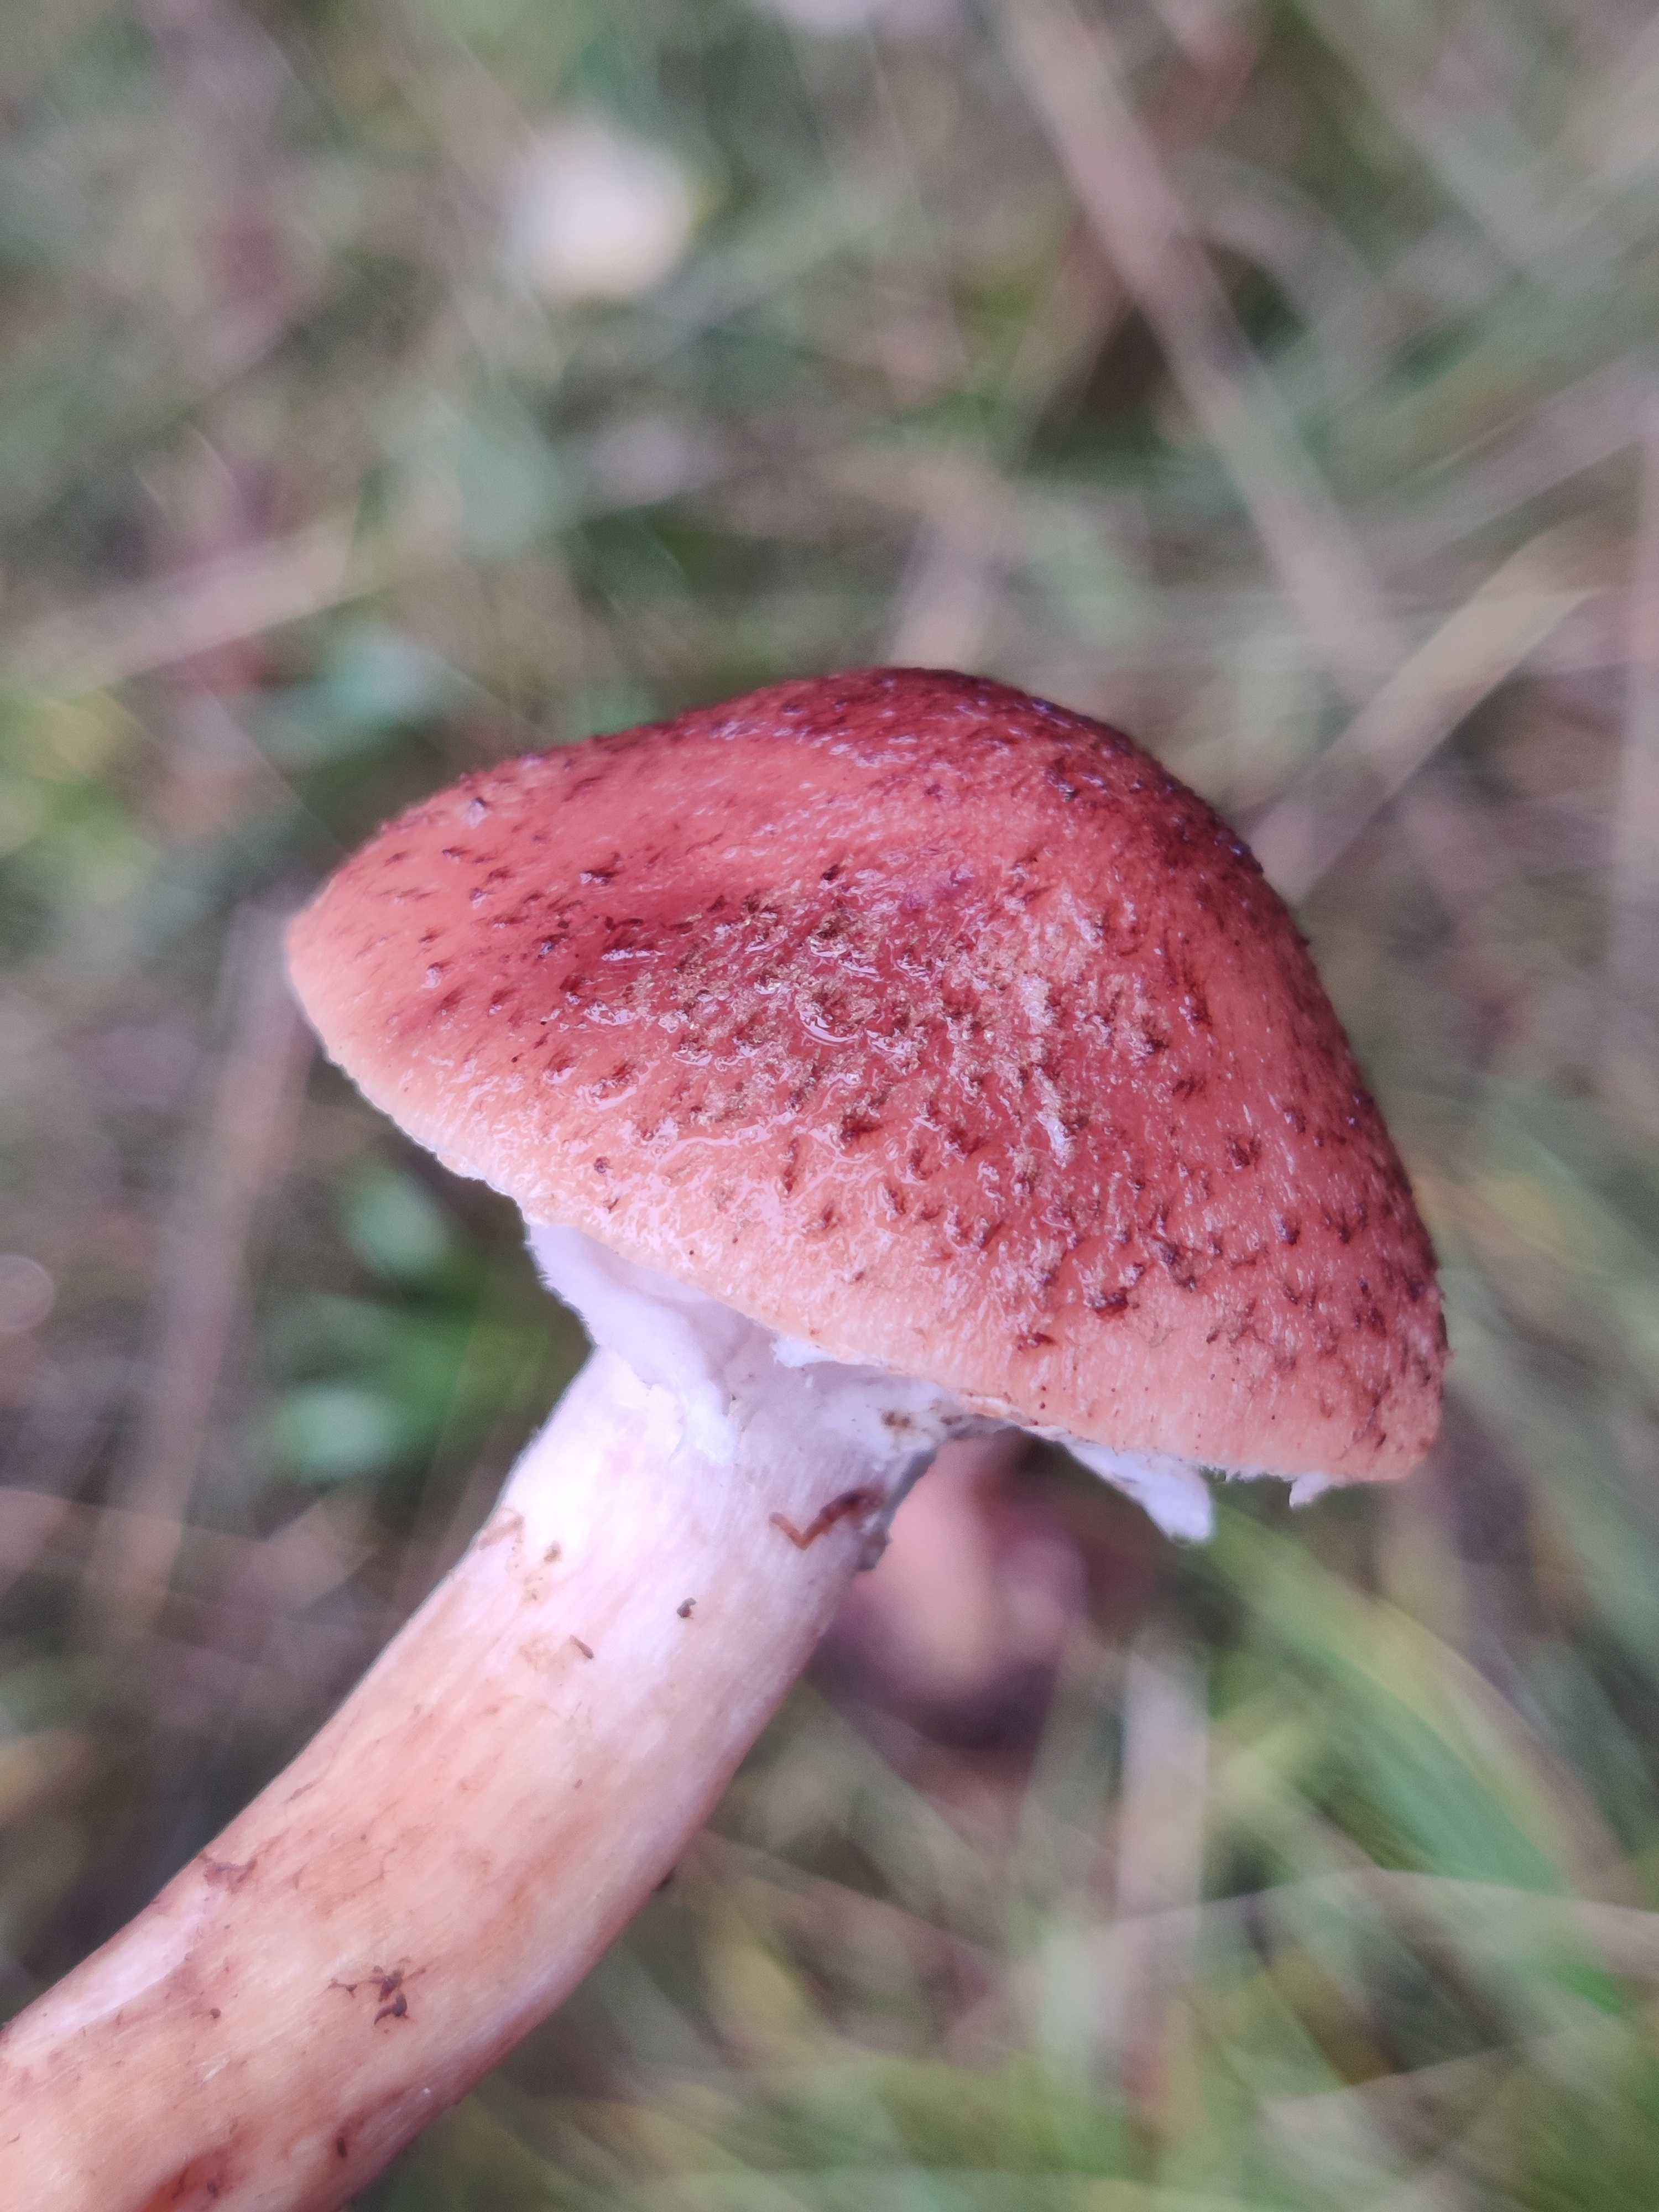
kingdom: Fungi
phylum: Basidiomycota
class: Agaricomycetes
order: Agaricales
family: Physalacriaceae
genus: Armillaria
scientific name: Armillaria ostoyae
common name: mørk honningsvamp
